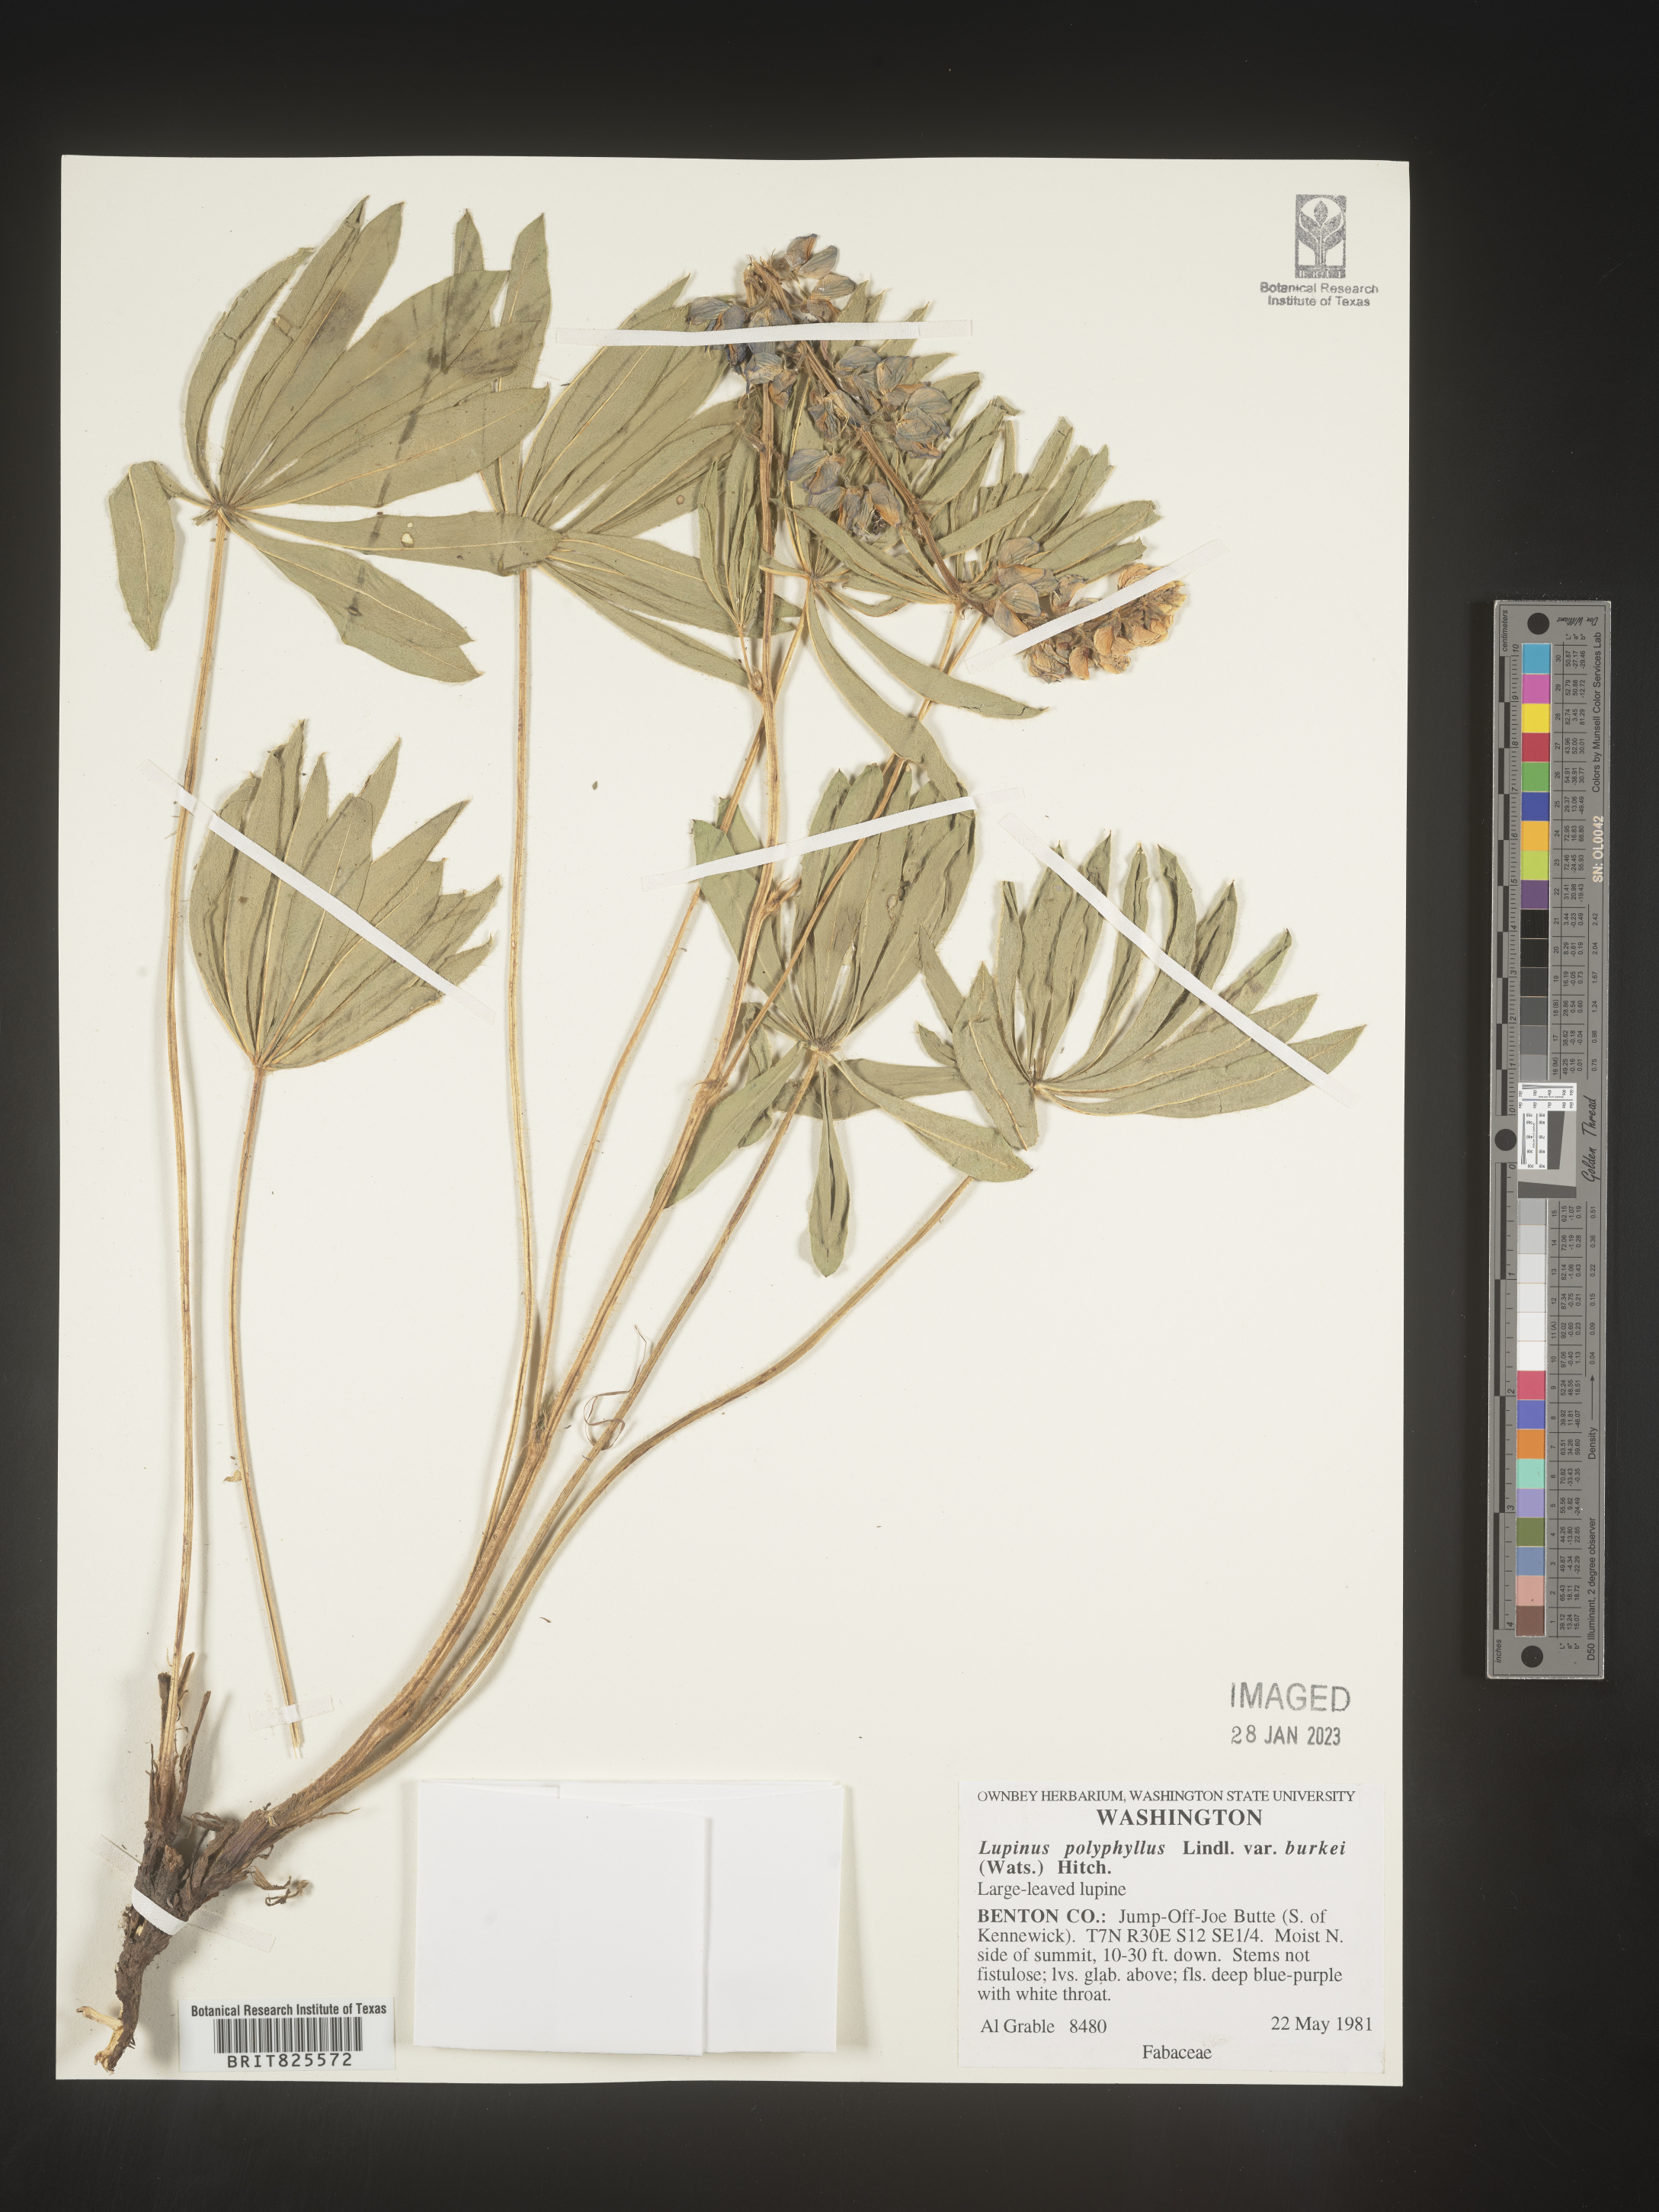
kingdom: Plantae
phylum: Tracheophyta
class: Magnoliopsida
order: Fabales
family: Fabaceae
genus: Lupinus
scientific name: Lupinus
